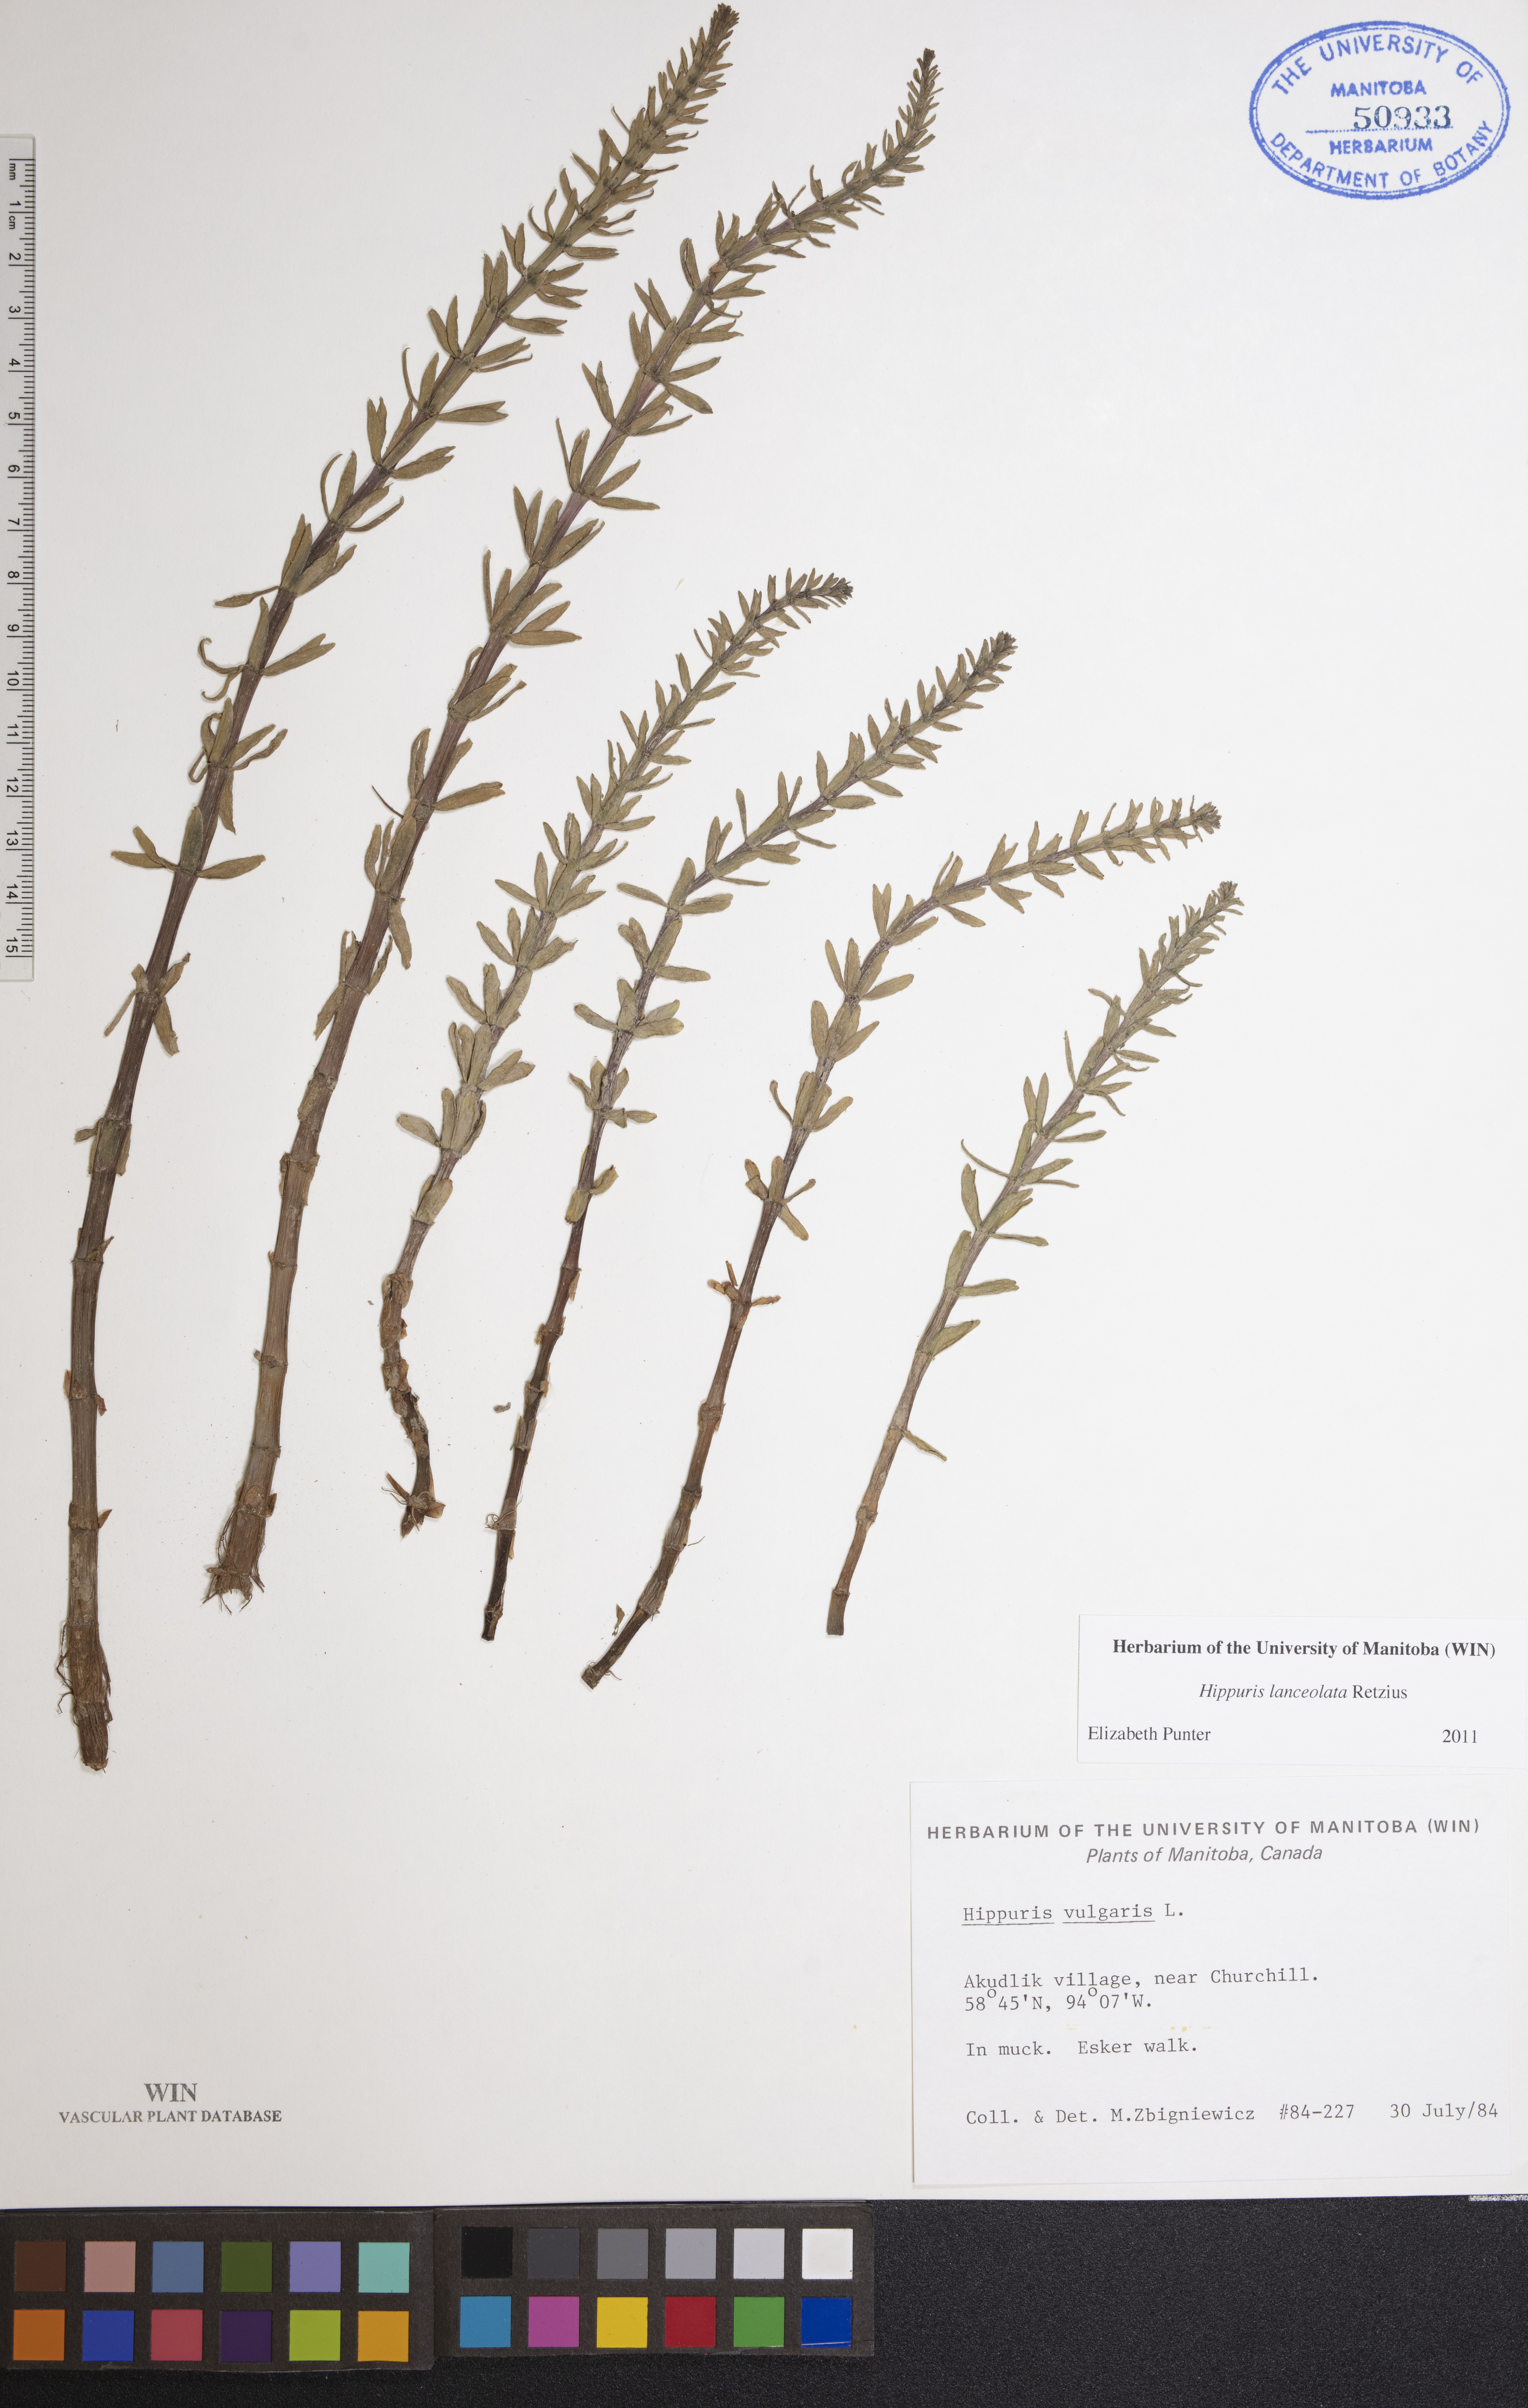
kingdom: Plantae
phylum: Tracheophyta
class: Magnoliopsida
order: Lamiales
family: Plantaginaceae
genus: Hippuris
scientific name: Hippuris lanceolata
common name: Lance-leaved mare's-tail
